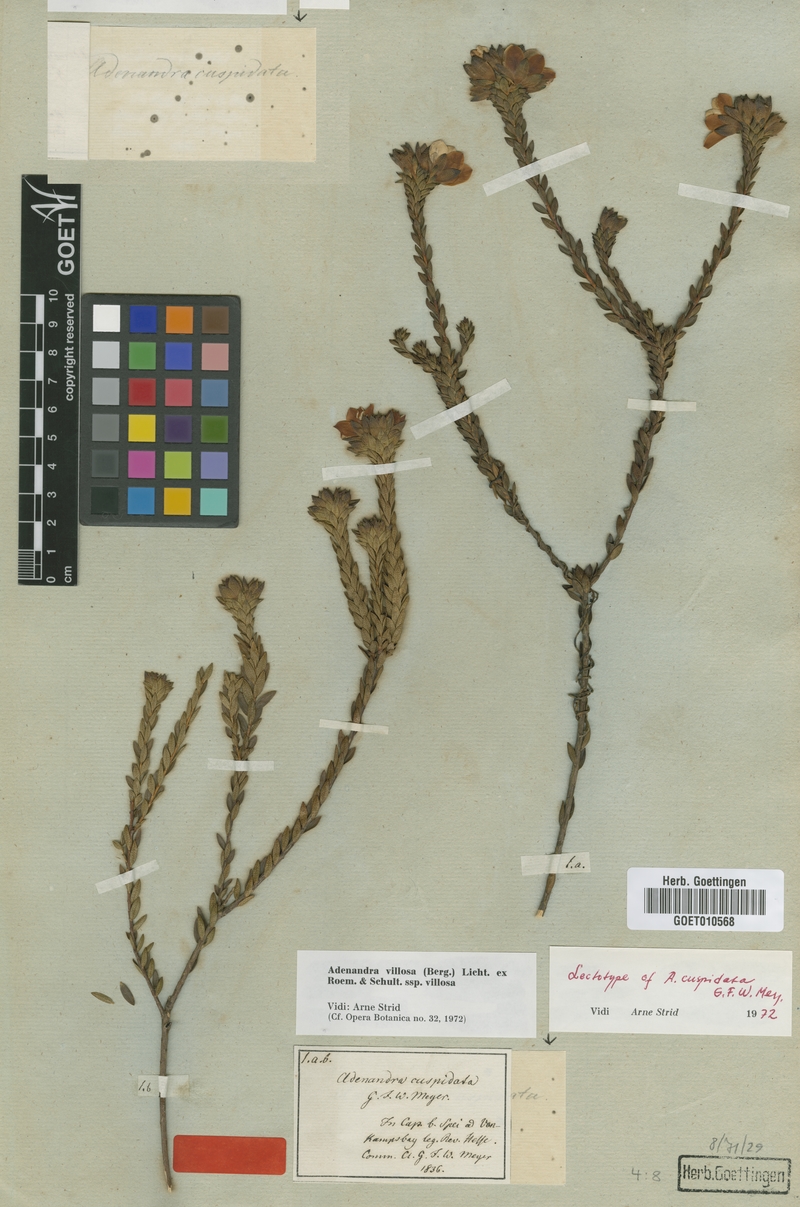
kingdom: Plantae
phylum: Tracheophyta
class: Magnoliopsida
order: Sapindales
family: Rutaceae
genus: Adenandra
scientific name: Adenandra villosa
